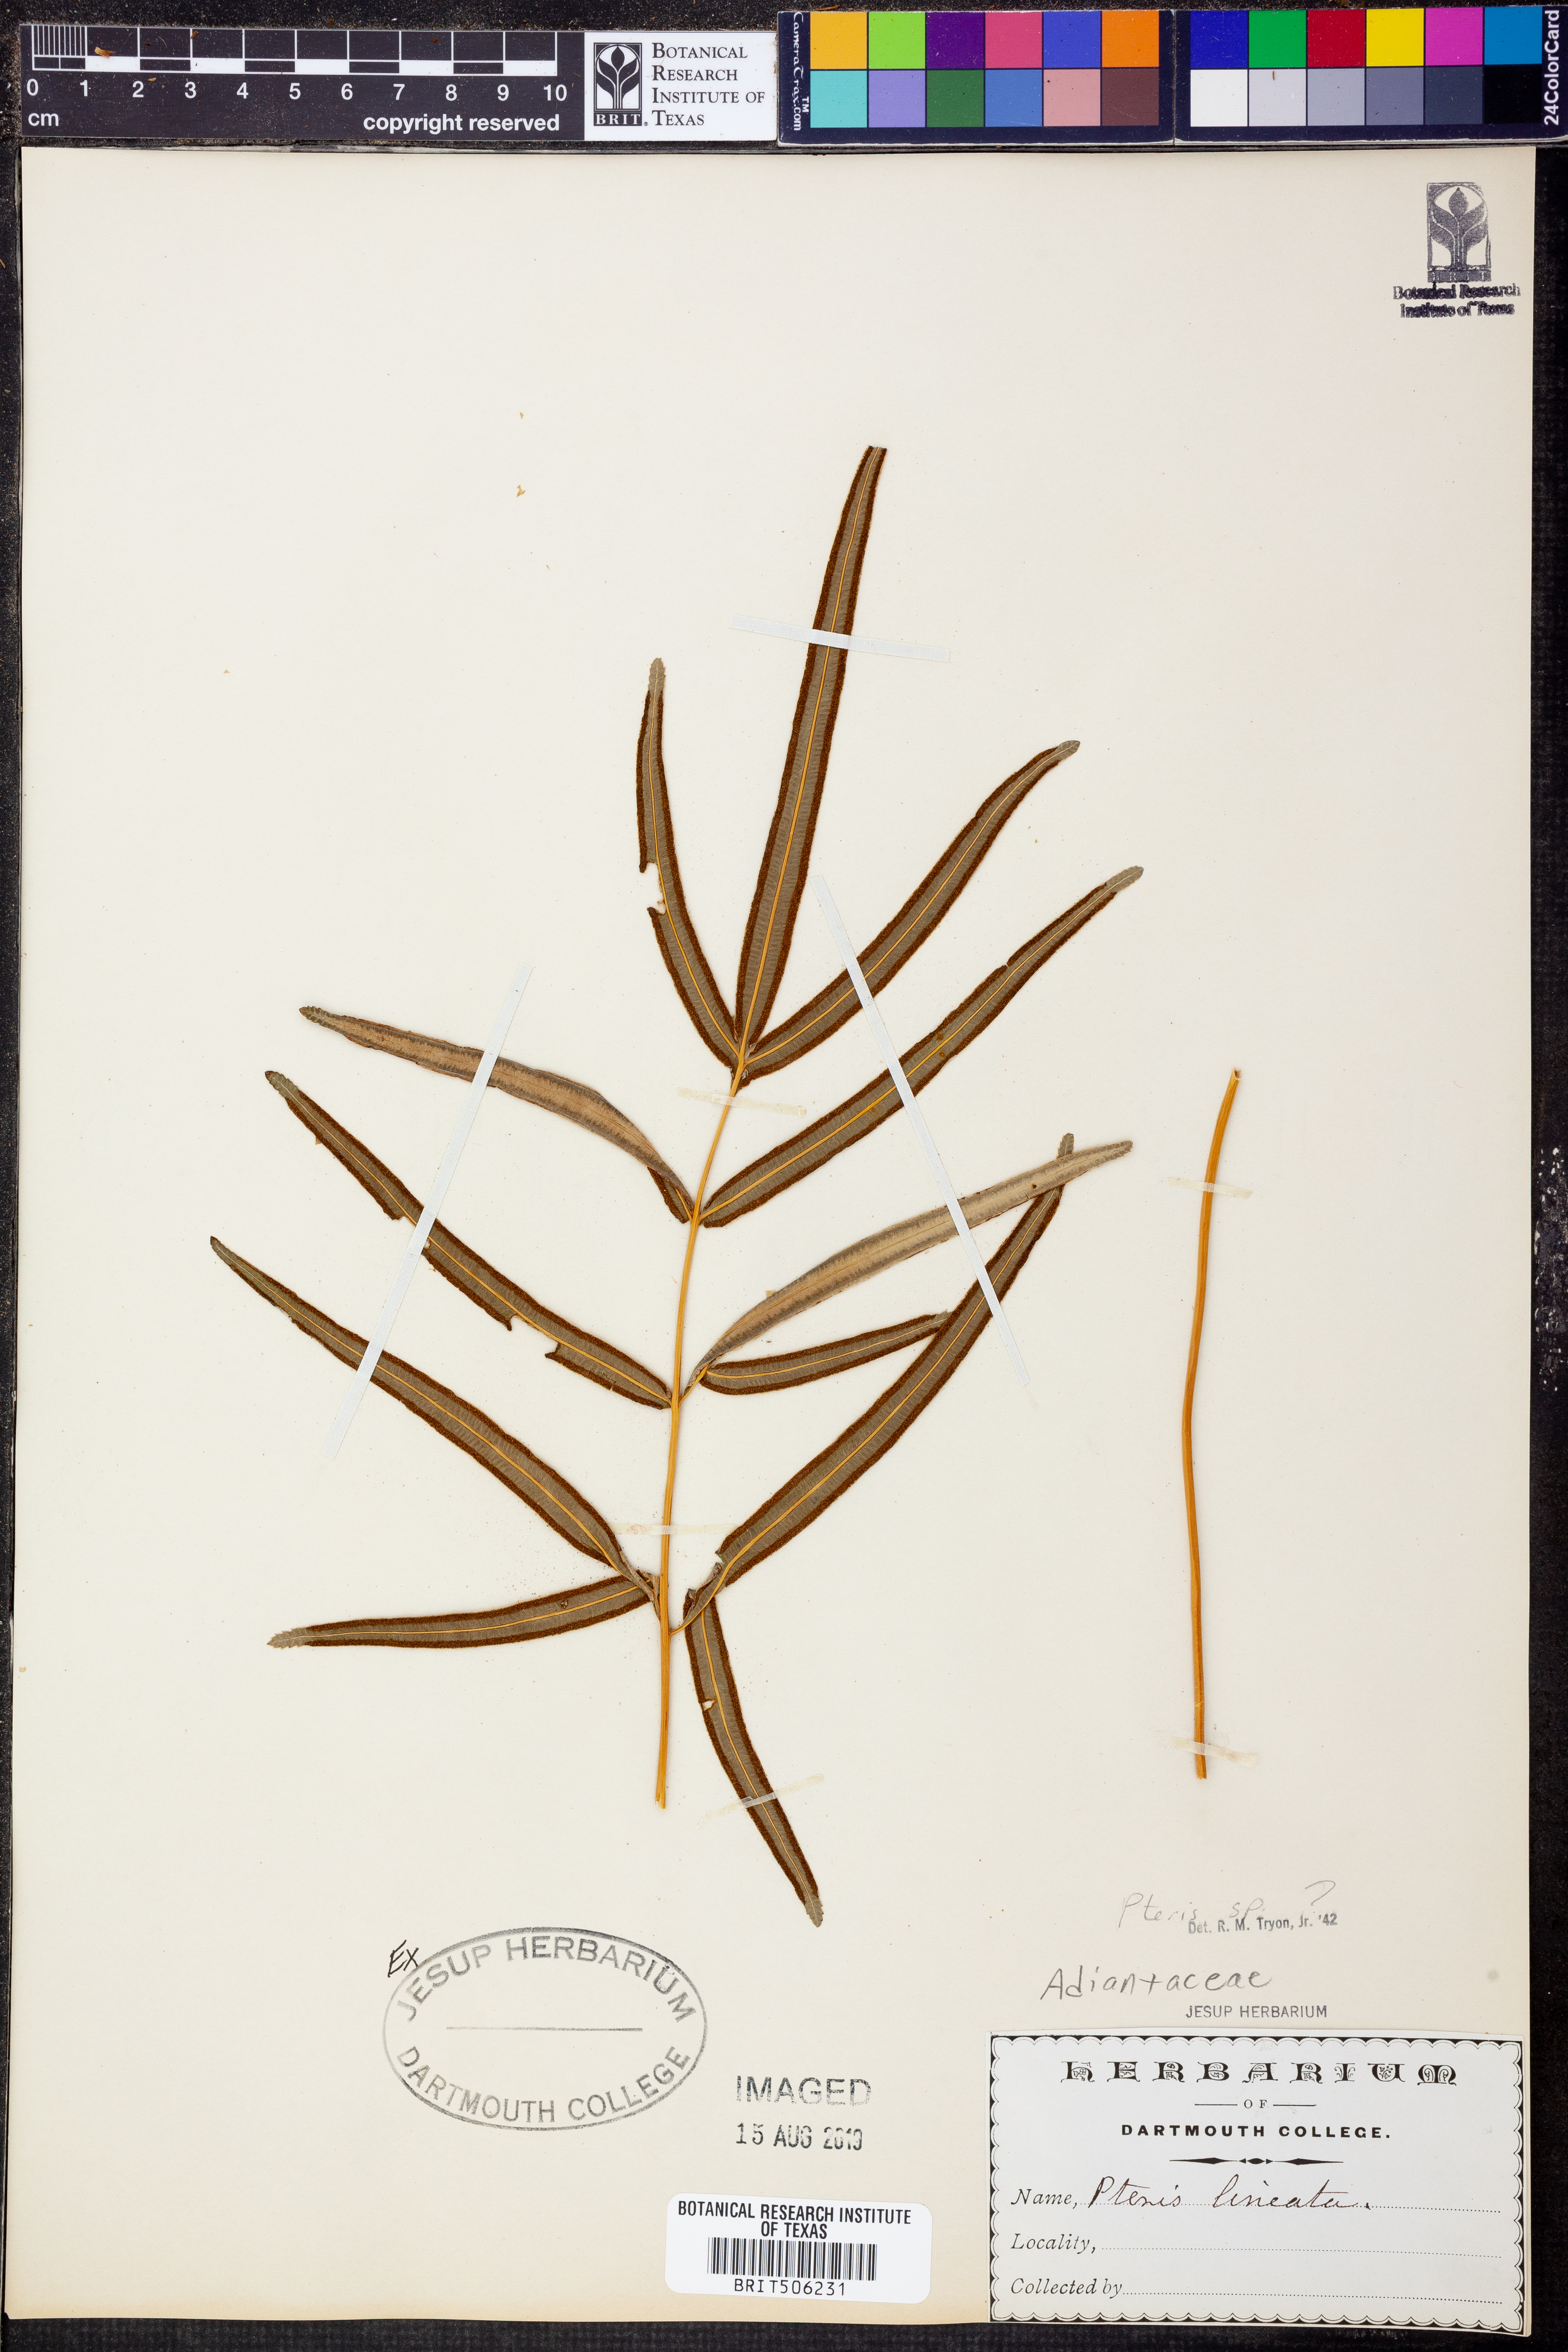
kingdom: Plantae
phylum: Tracheophyta
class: Polypodiopsida
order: Polypodiales
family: Pteridaceae
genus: Pteris
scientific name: Pteris
